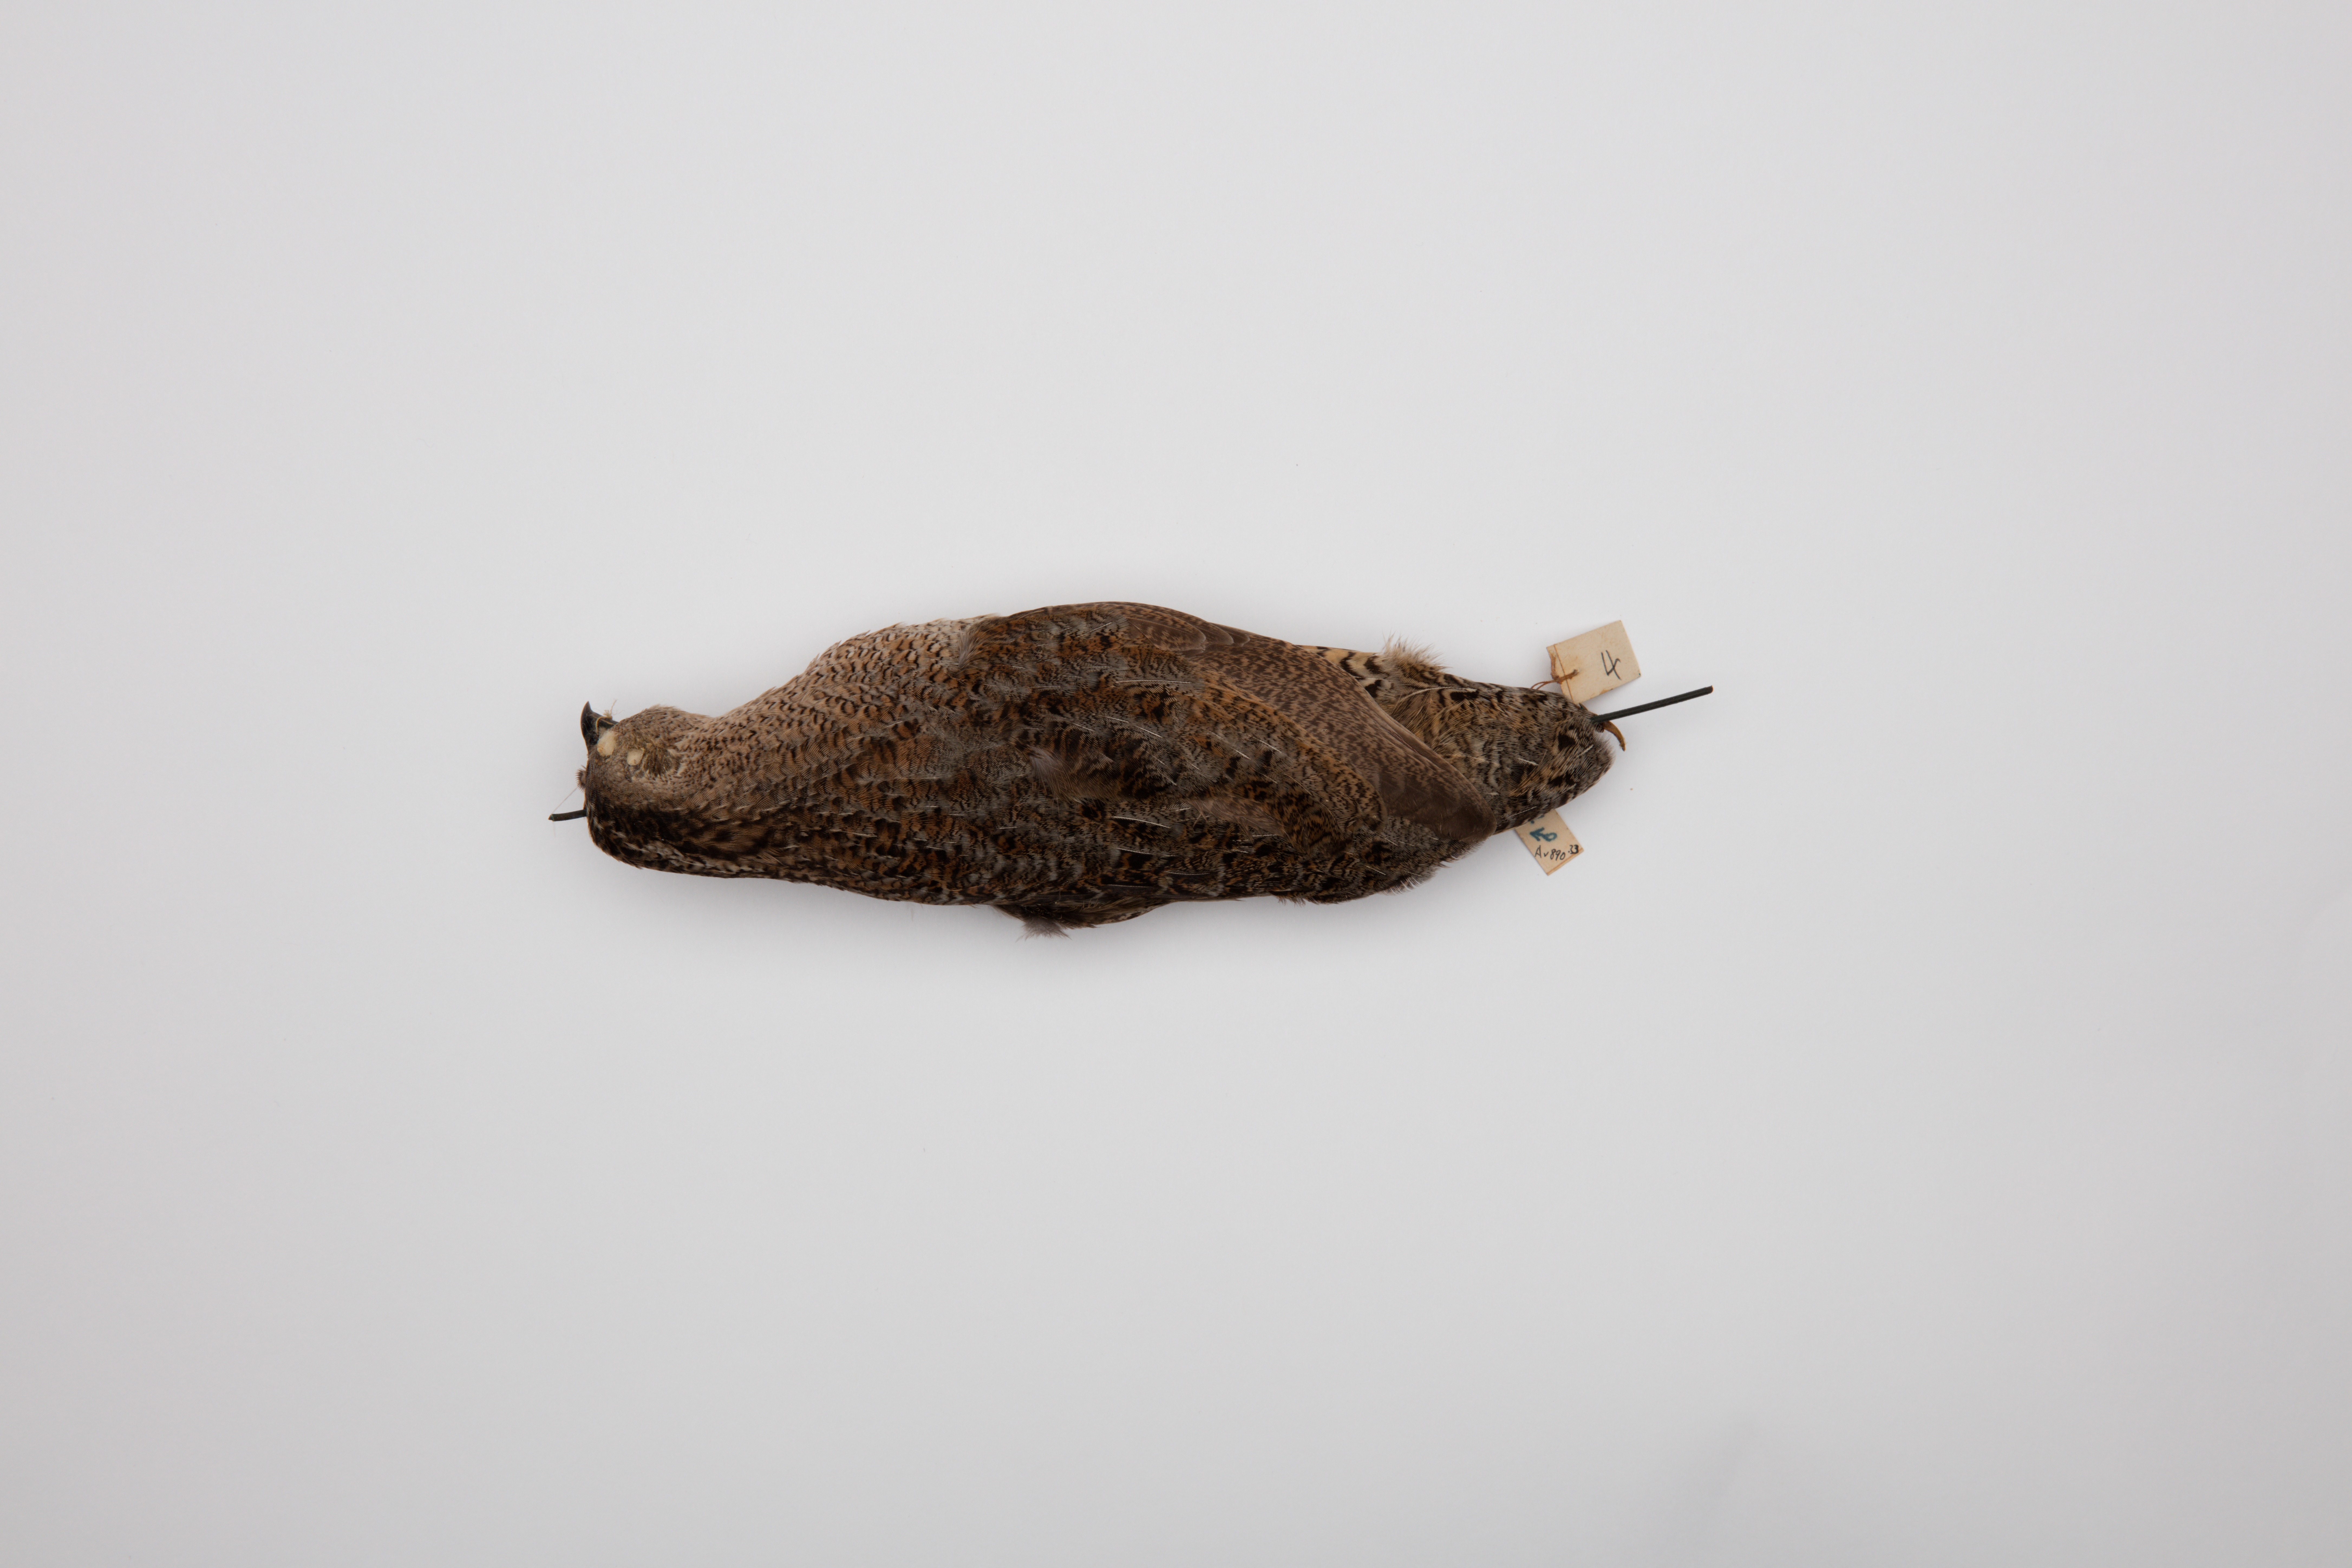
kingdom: Animalia
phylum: Chordata
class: Aves
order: Galliformes
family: Phasianidae
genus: Synoicus
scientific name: Synoicus ypsilophorus
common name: Brown quail
